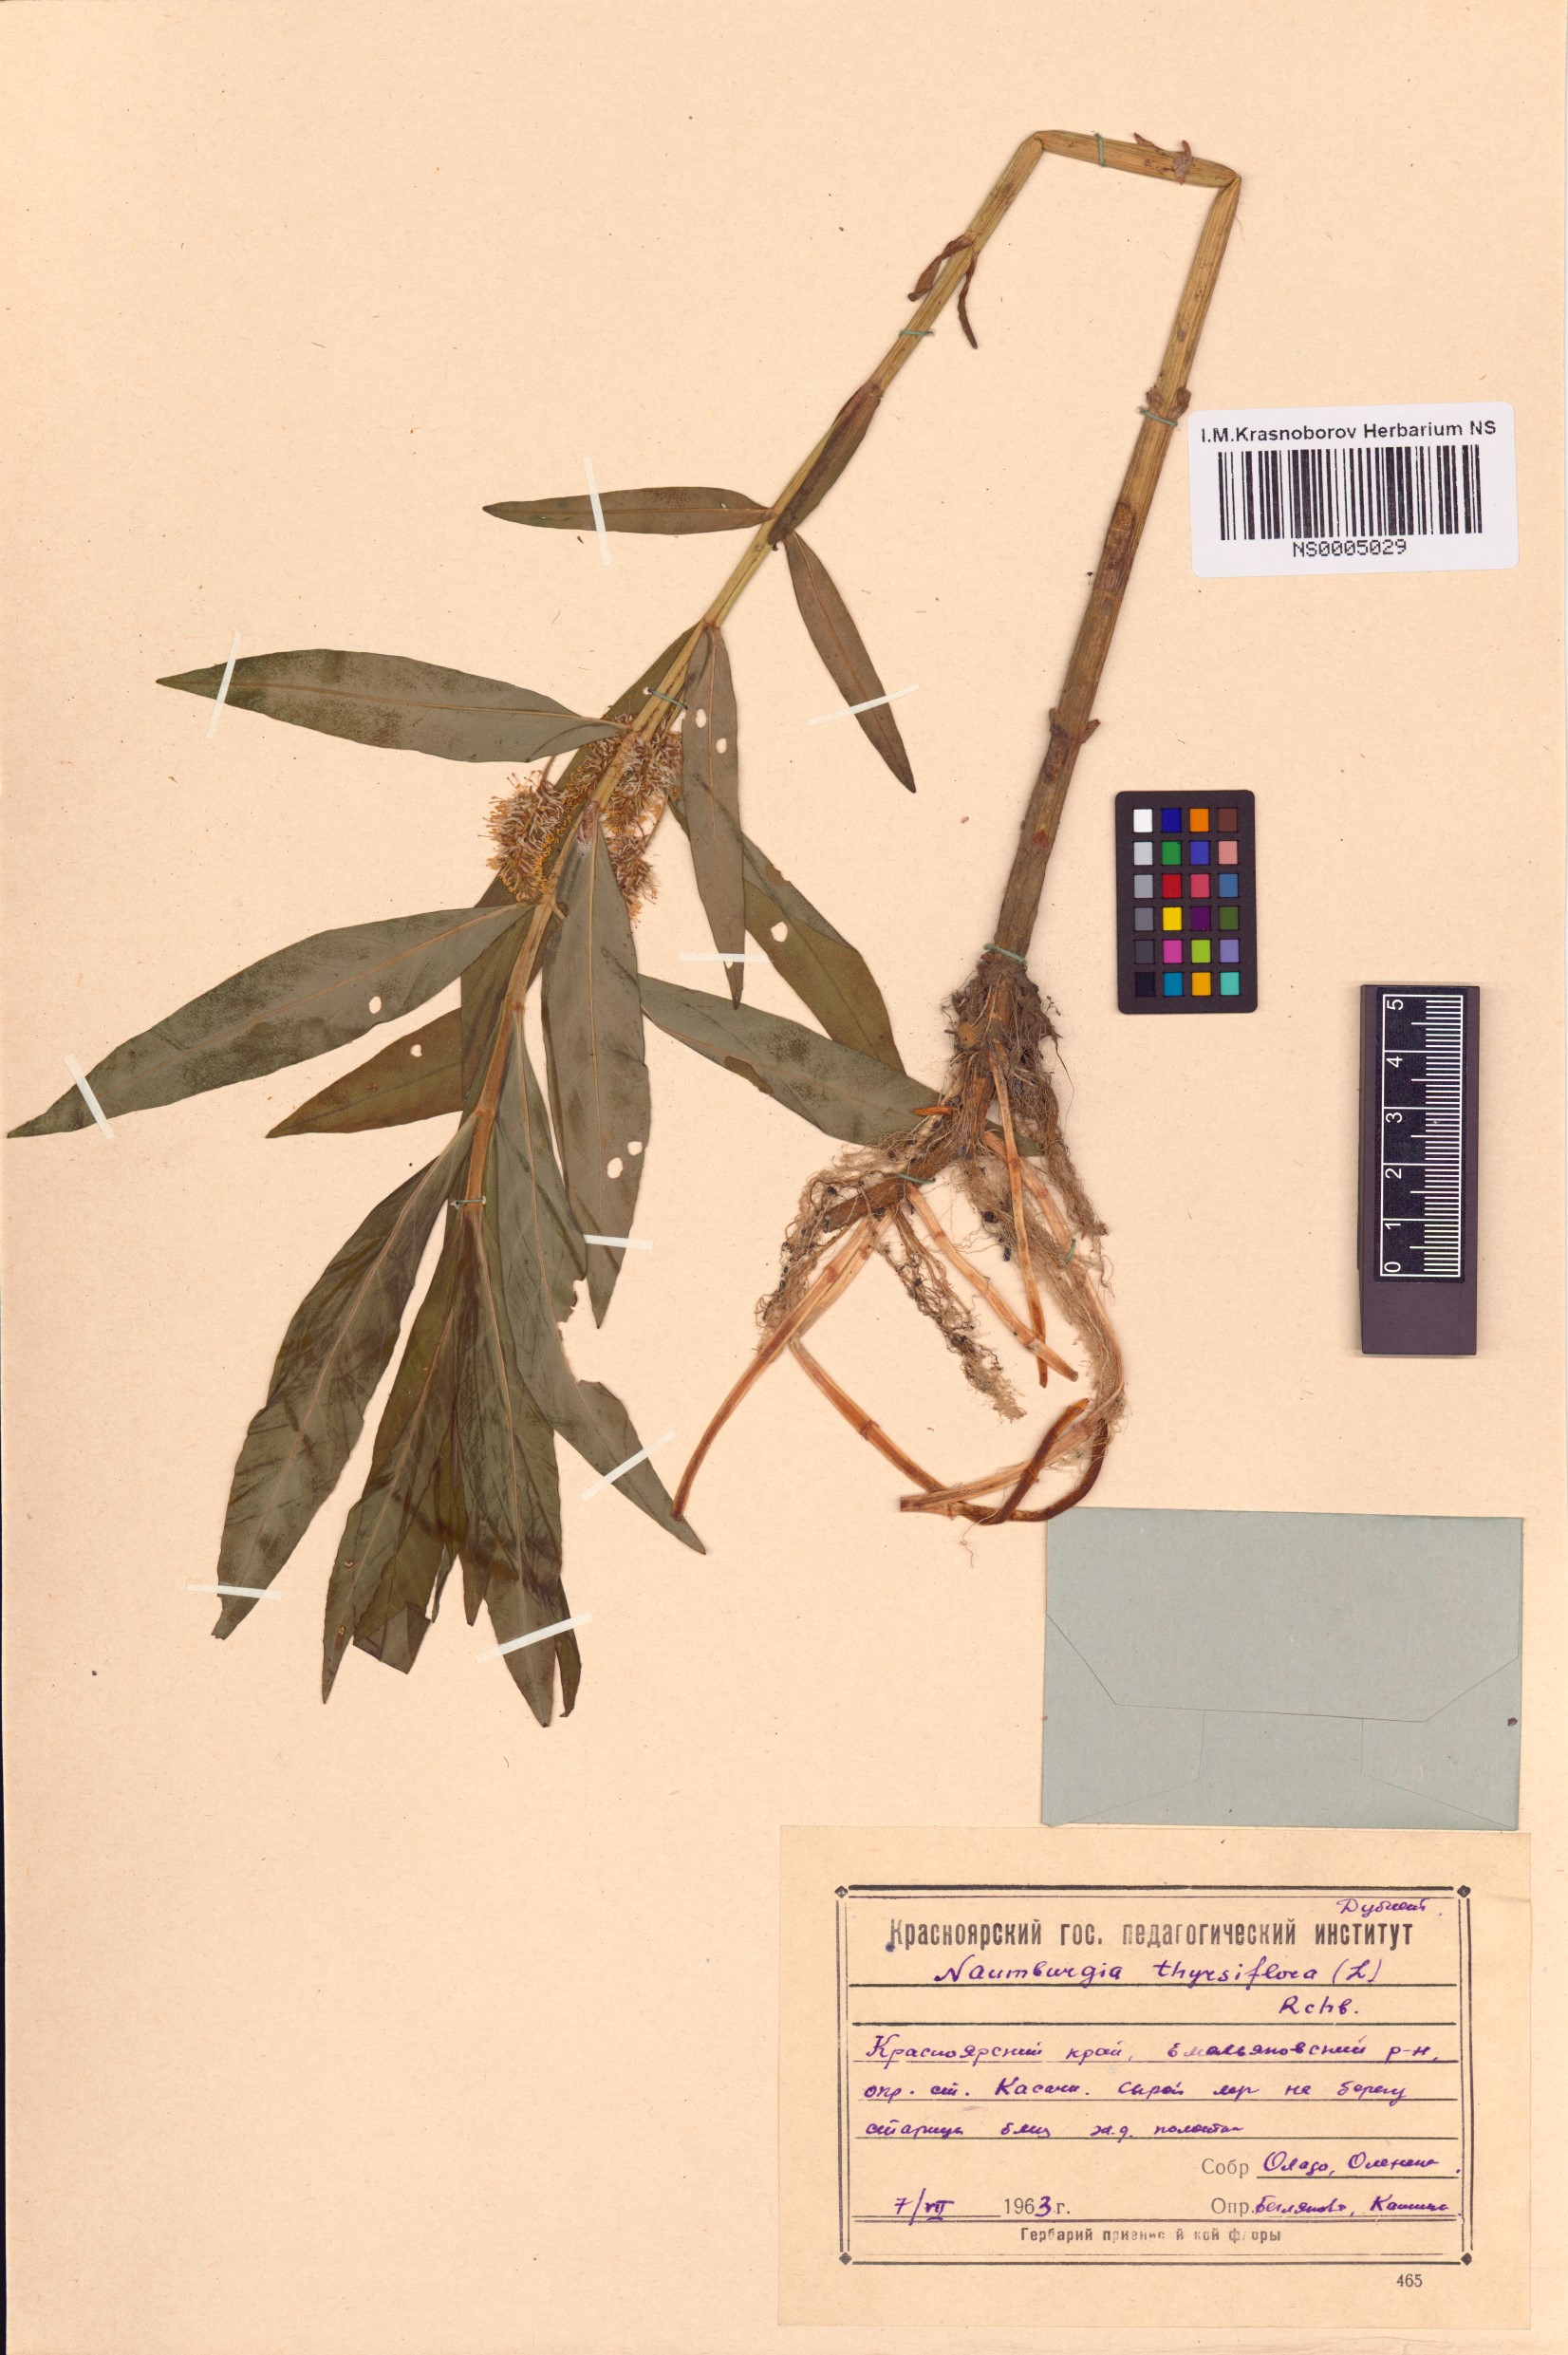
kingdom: Plantae
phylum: Tracheophyta
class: Magnoliopsida
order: Ericales
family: Primulaceae
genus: Lysimachia
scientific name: Lysimachia thyrsiflora
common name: Tufted loosestrife
